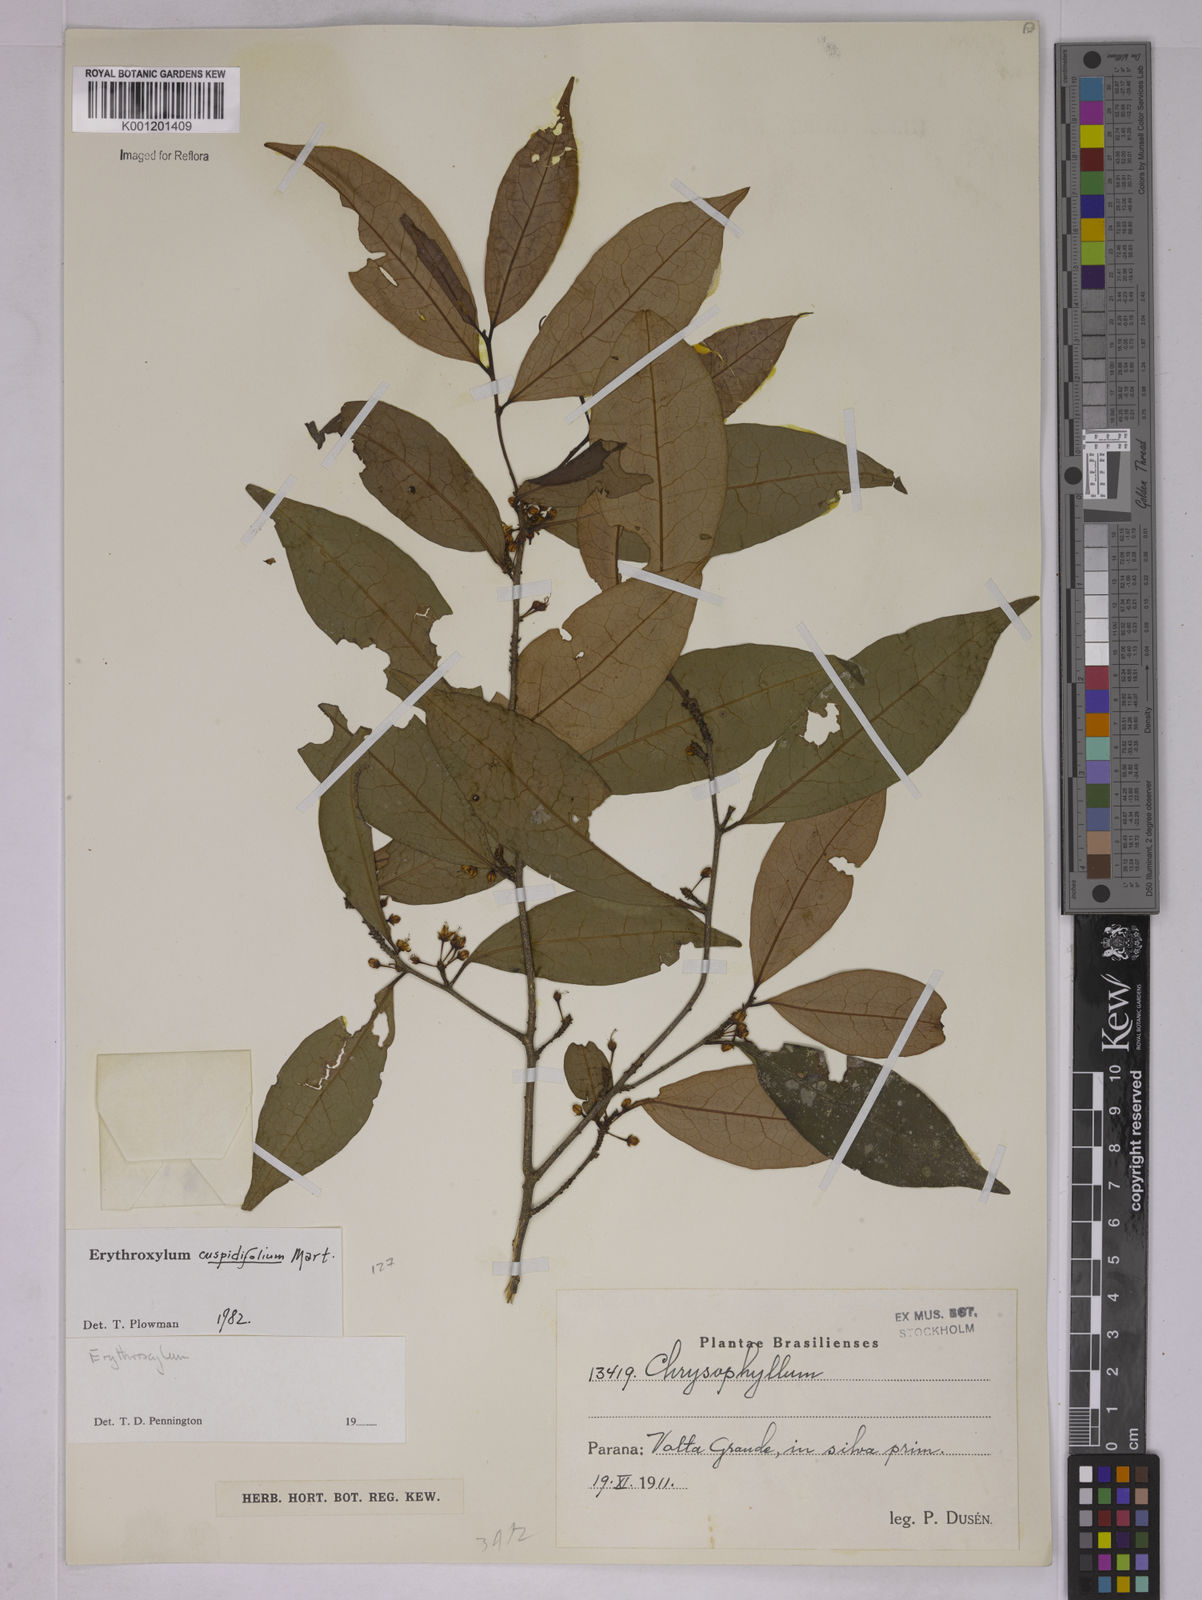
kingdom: Plantae
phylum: Tracheophyta
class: Magnoliopsida
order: Malpighiales
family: Erythroxylaceae
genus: Erythroxylum
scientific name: Erythroxylum cuspidifolium
